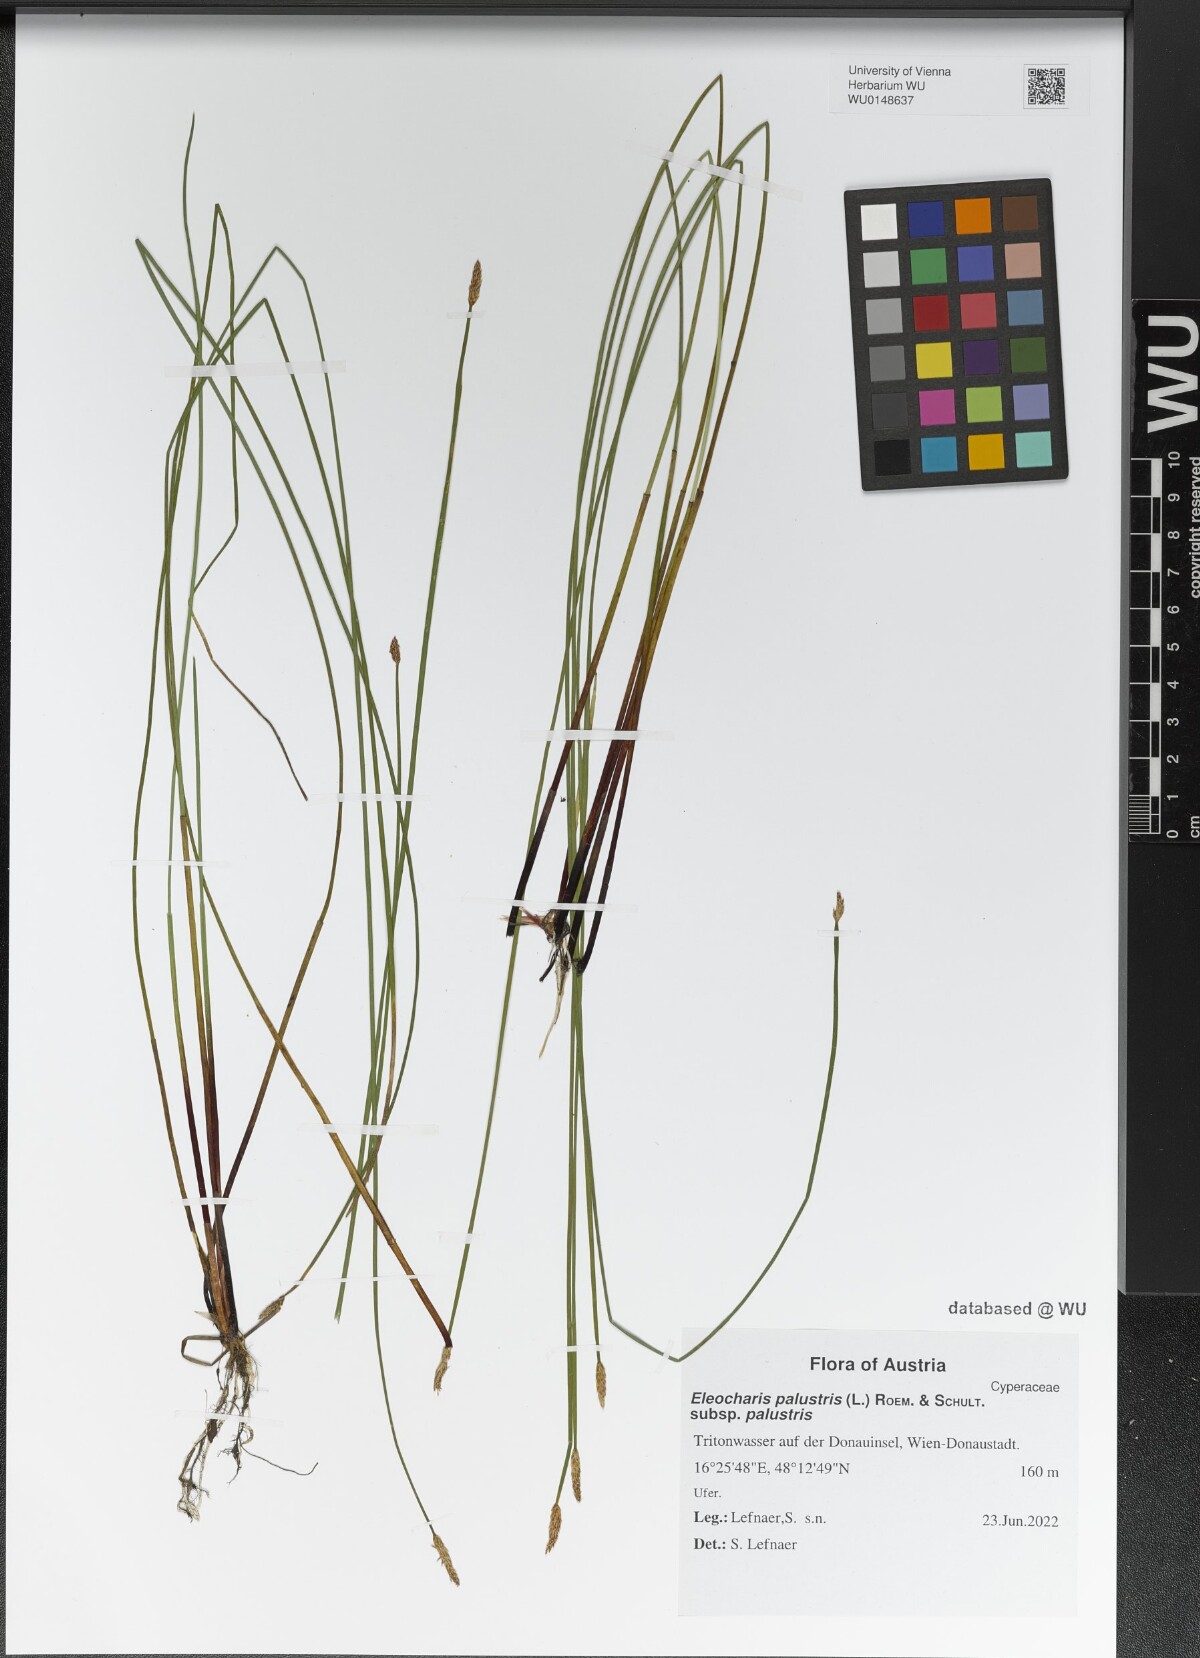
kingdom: Plantae
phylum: Tracheophyta
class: Liliopsida
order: Poales
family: Cyperaceae
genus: Eleocharis
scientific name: Eleocharis palustris
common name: Common spike-rush
